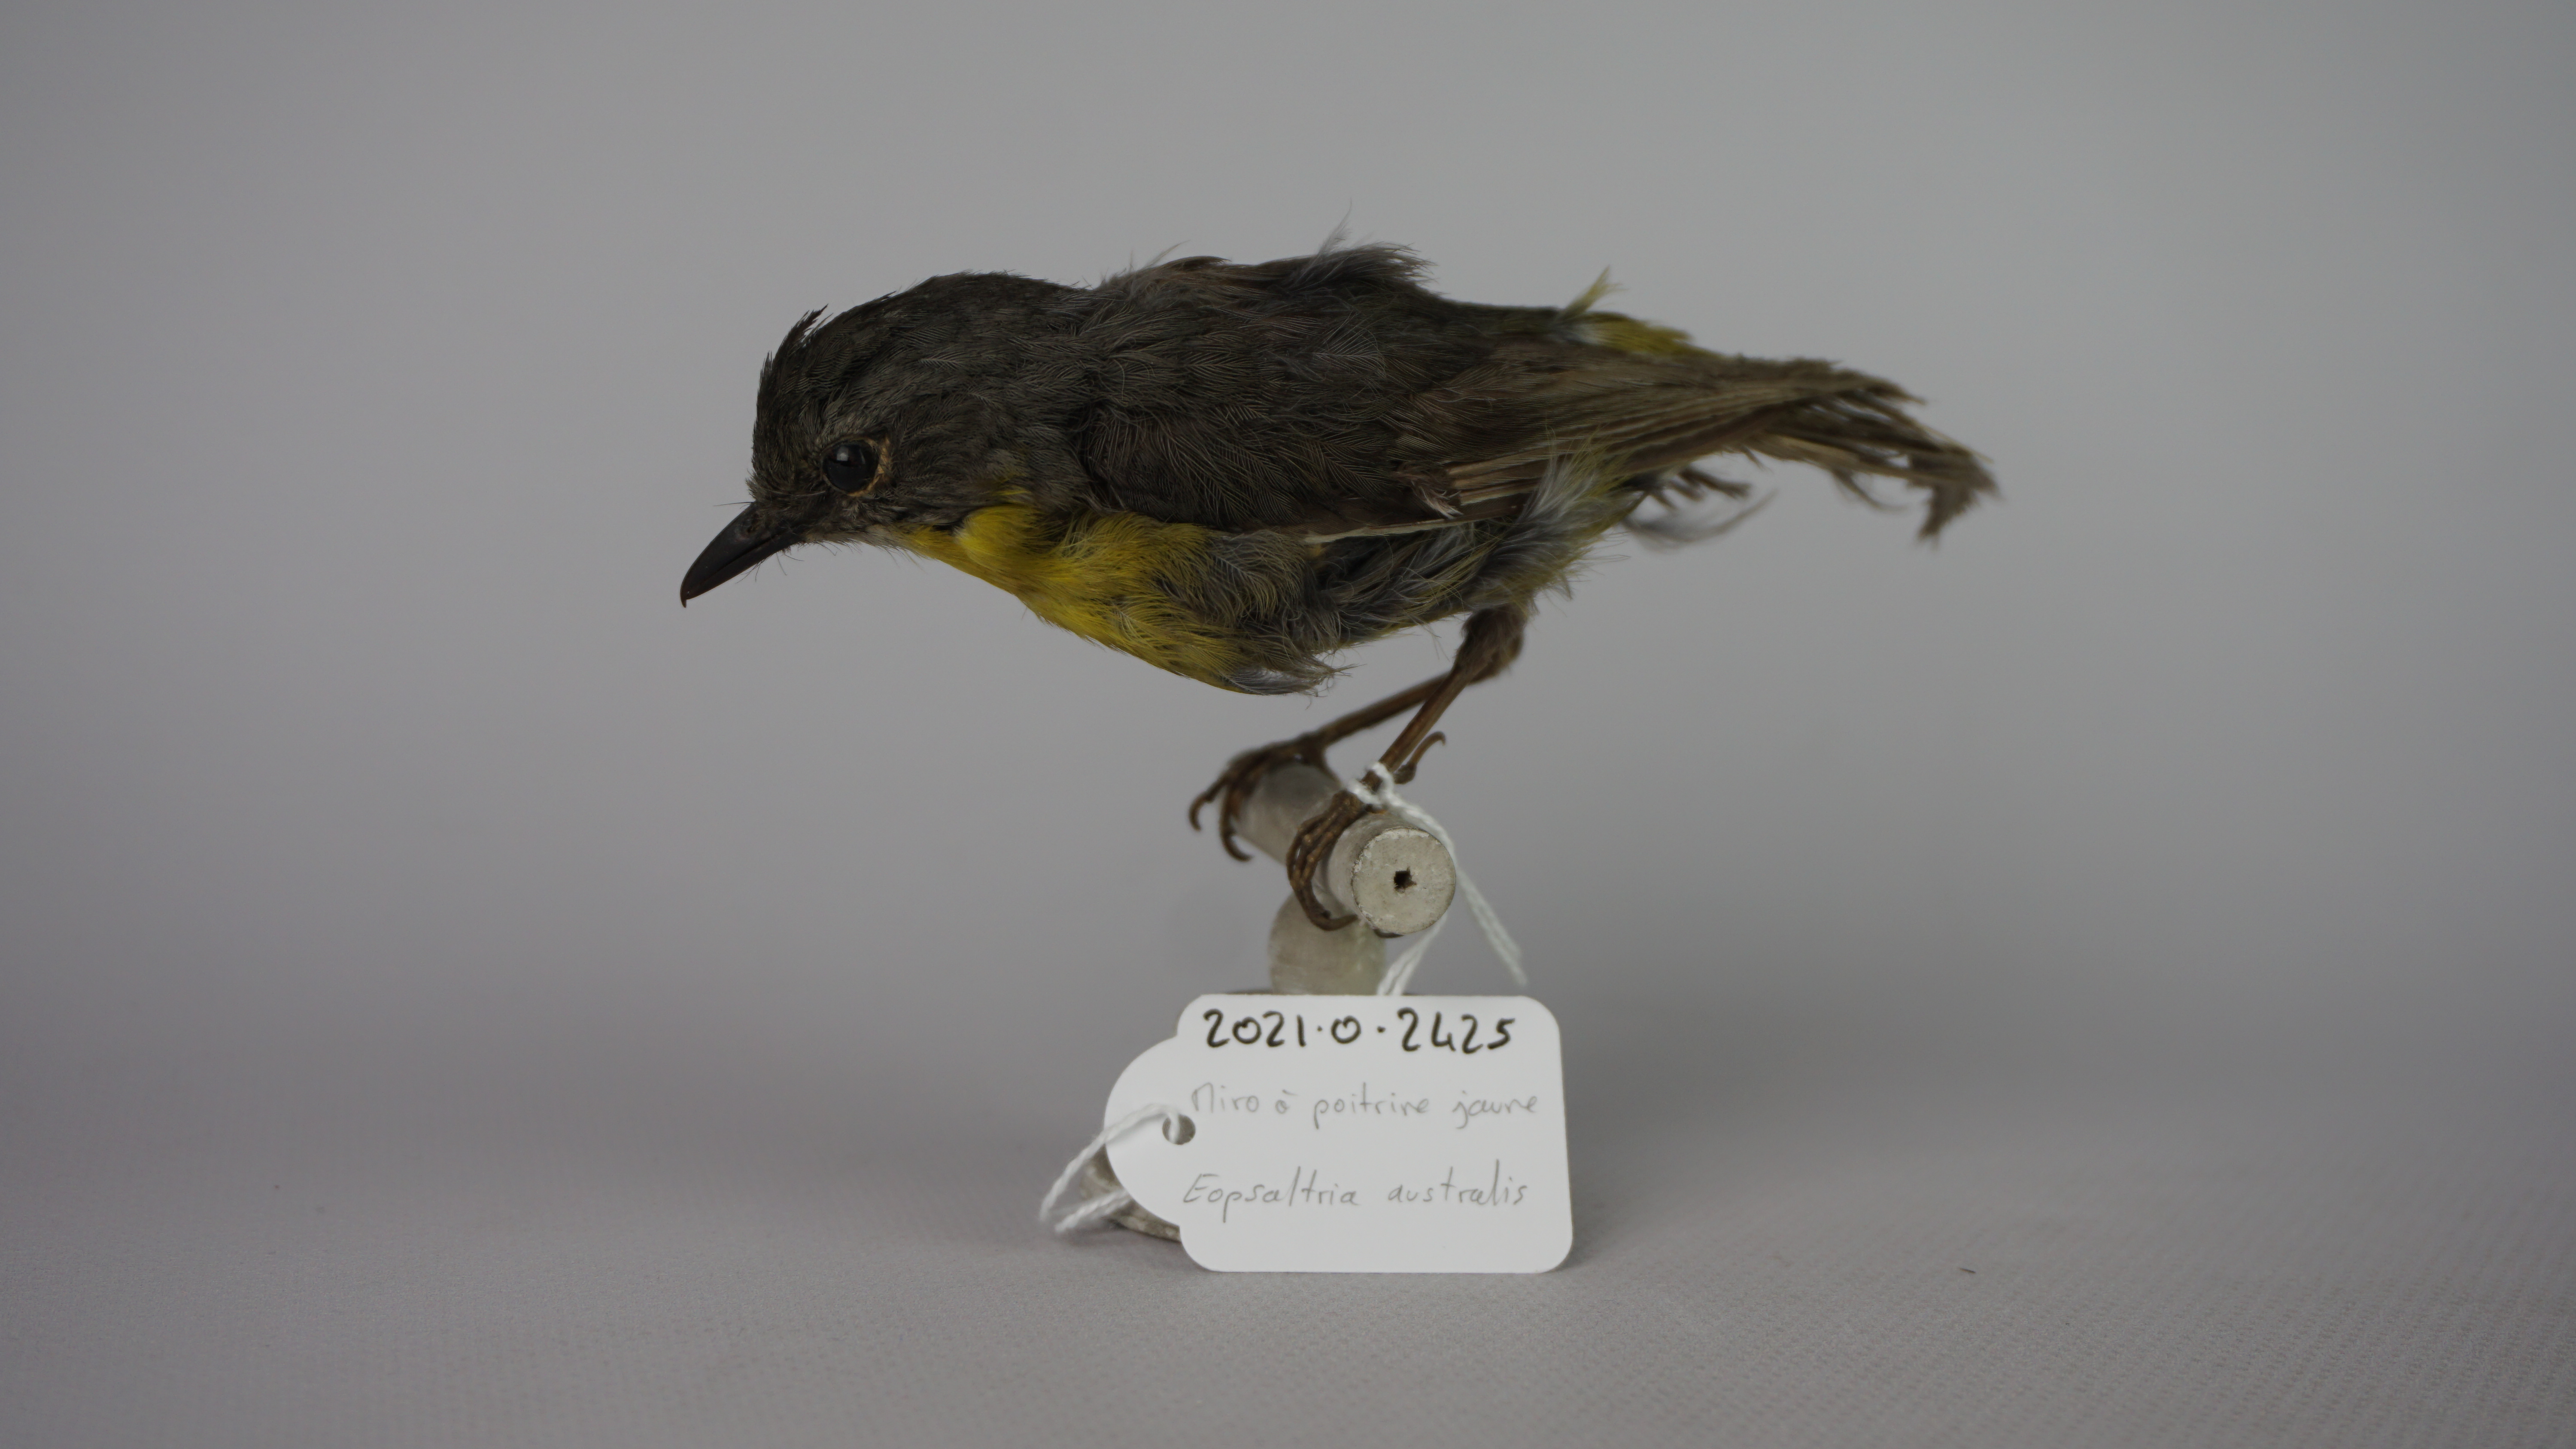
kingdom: Animalia
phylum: Chordata
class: Aves
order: Passeriformes
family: Petroicidae
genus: Eopsaltria
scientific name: Eopsaltria australis
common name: Eastern yellow robin
